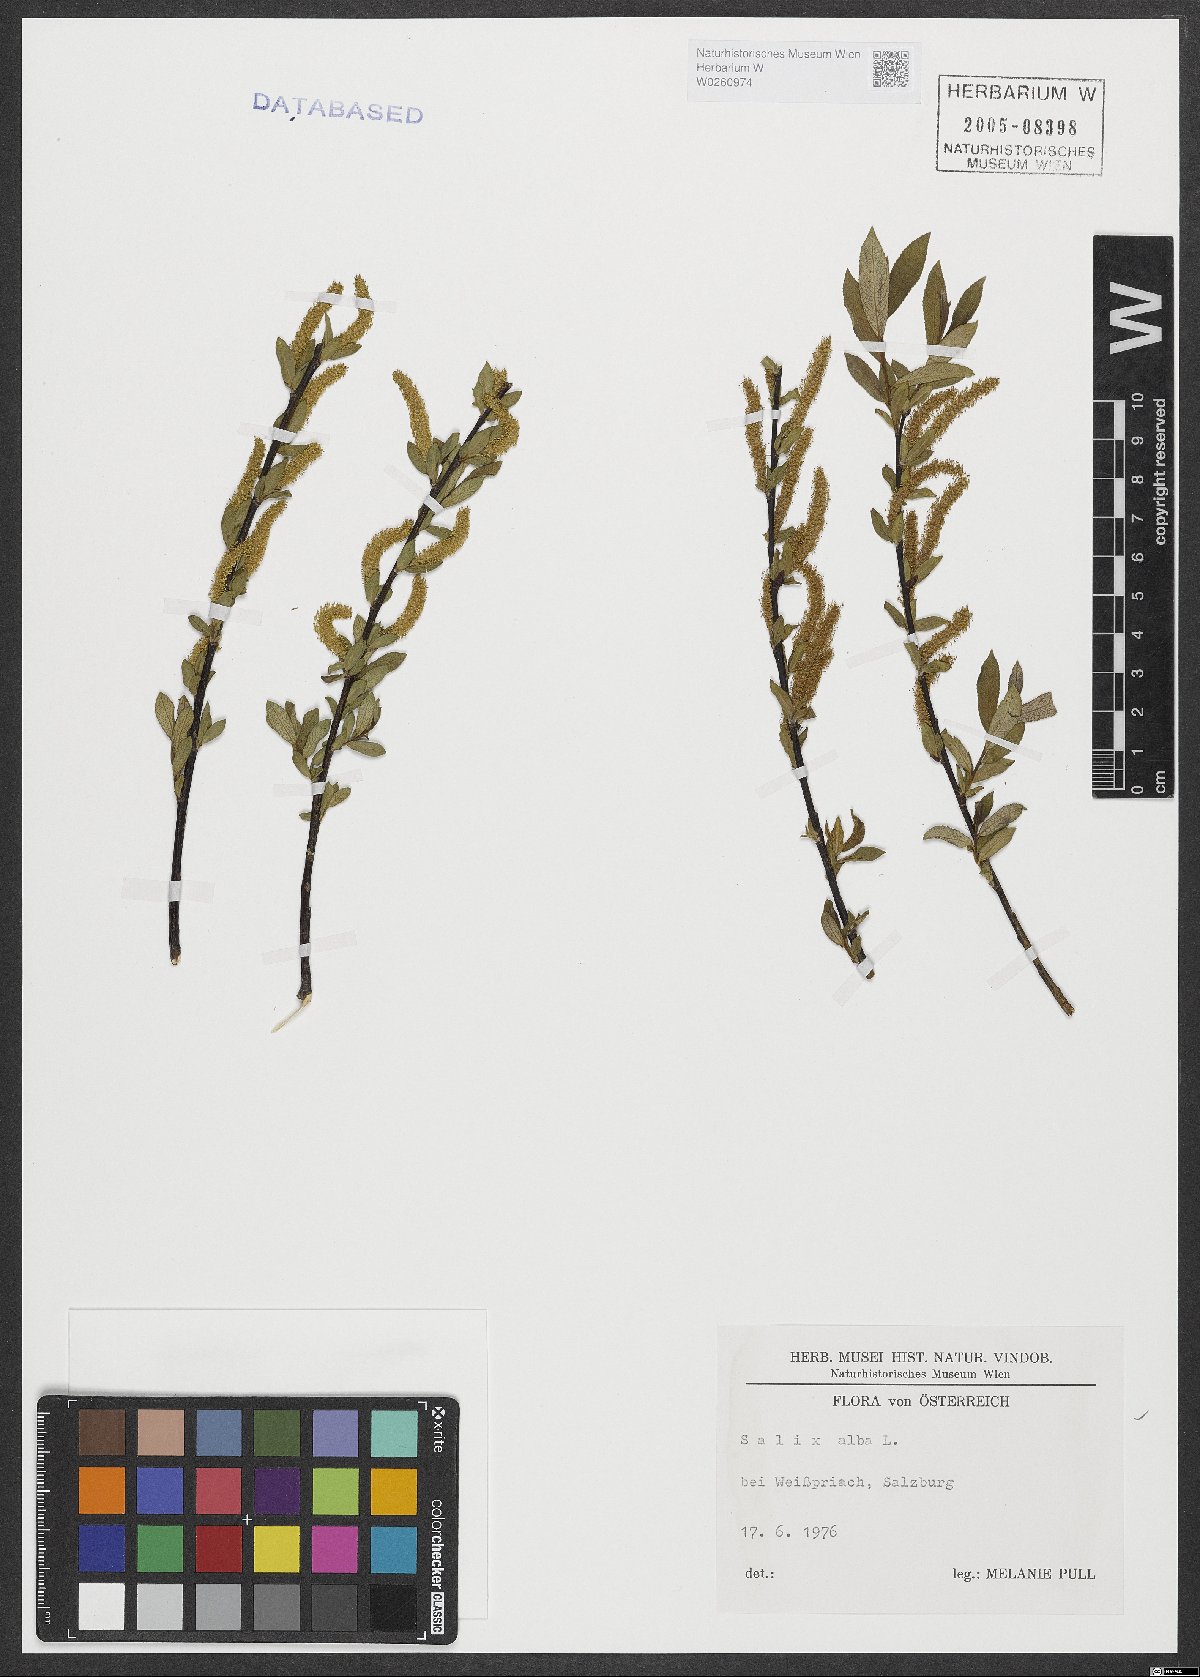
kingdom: Plantae
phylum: Tracheophyta
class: Magnoliopsida
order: Malpighiales
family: Salicaceae
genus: Salix
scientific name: Salix alba
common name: White willow
